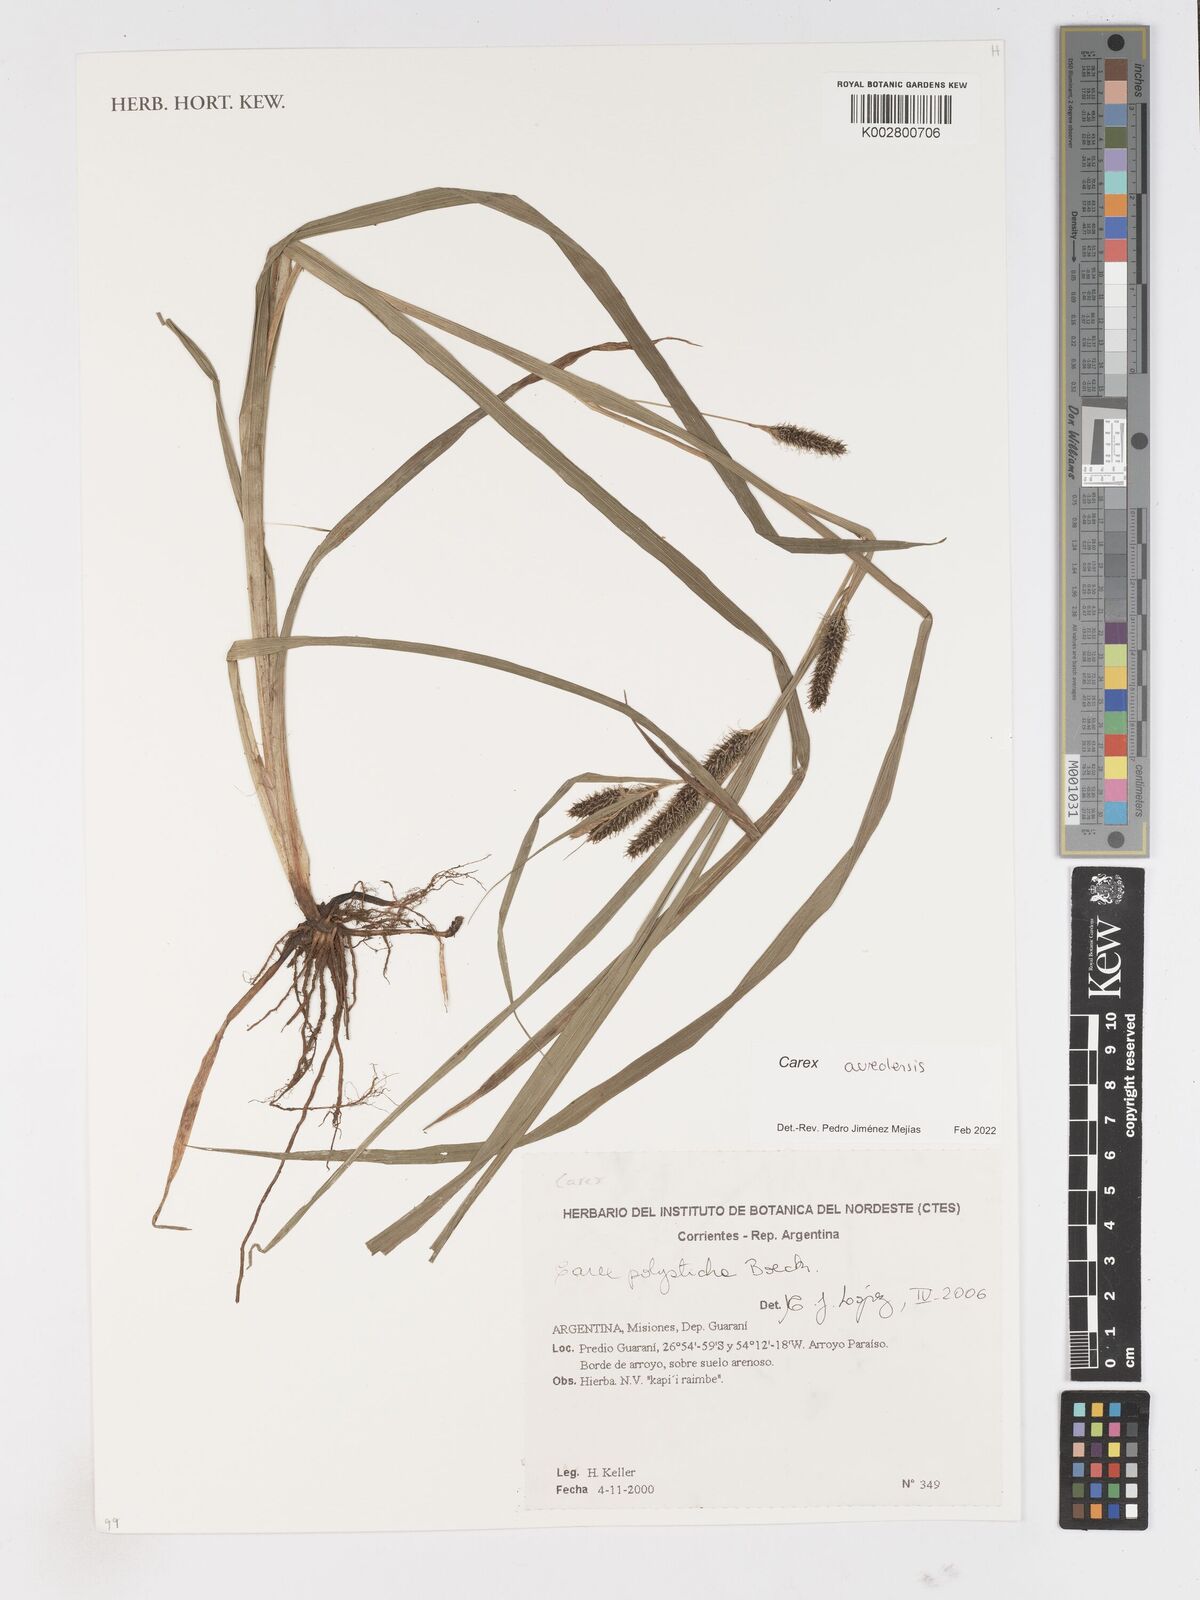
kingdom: Plantae
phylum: Tracheophyta
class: Liliopsida
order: Poales
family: Cyperaceae
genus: Carex
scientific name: Carex aureolensis
